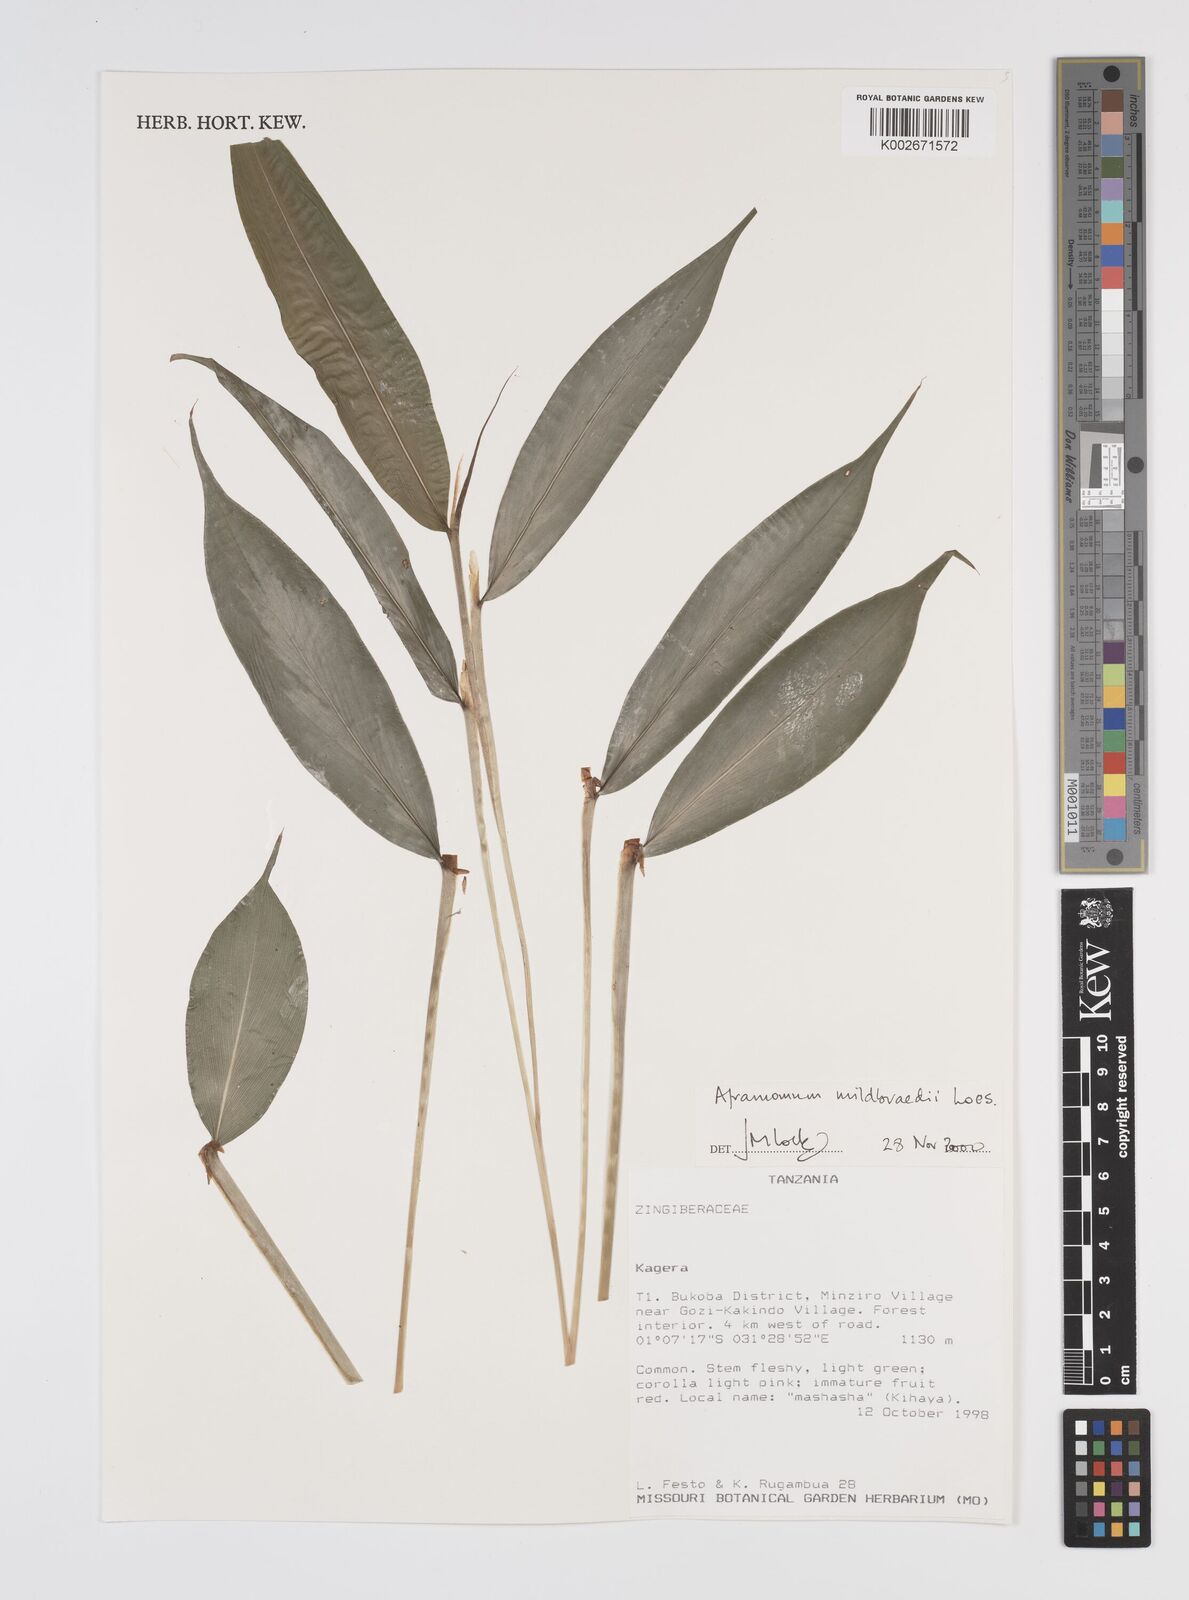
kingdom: Plantae
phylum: Tracheophyta
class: Liliopsida
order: Zingiberales
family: Zingiberaceae
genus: Aframomum
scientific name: Aframomum mildbraedii
